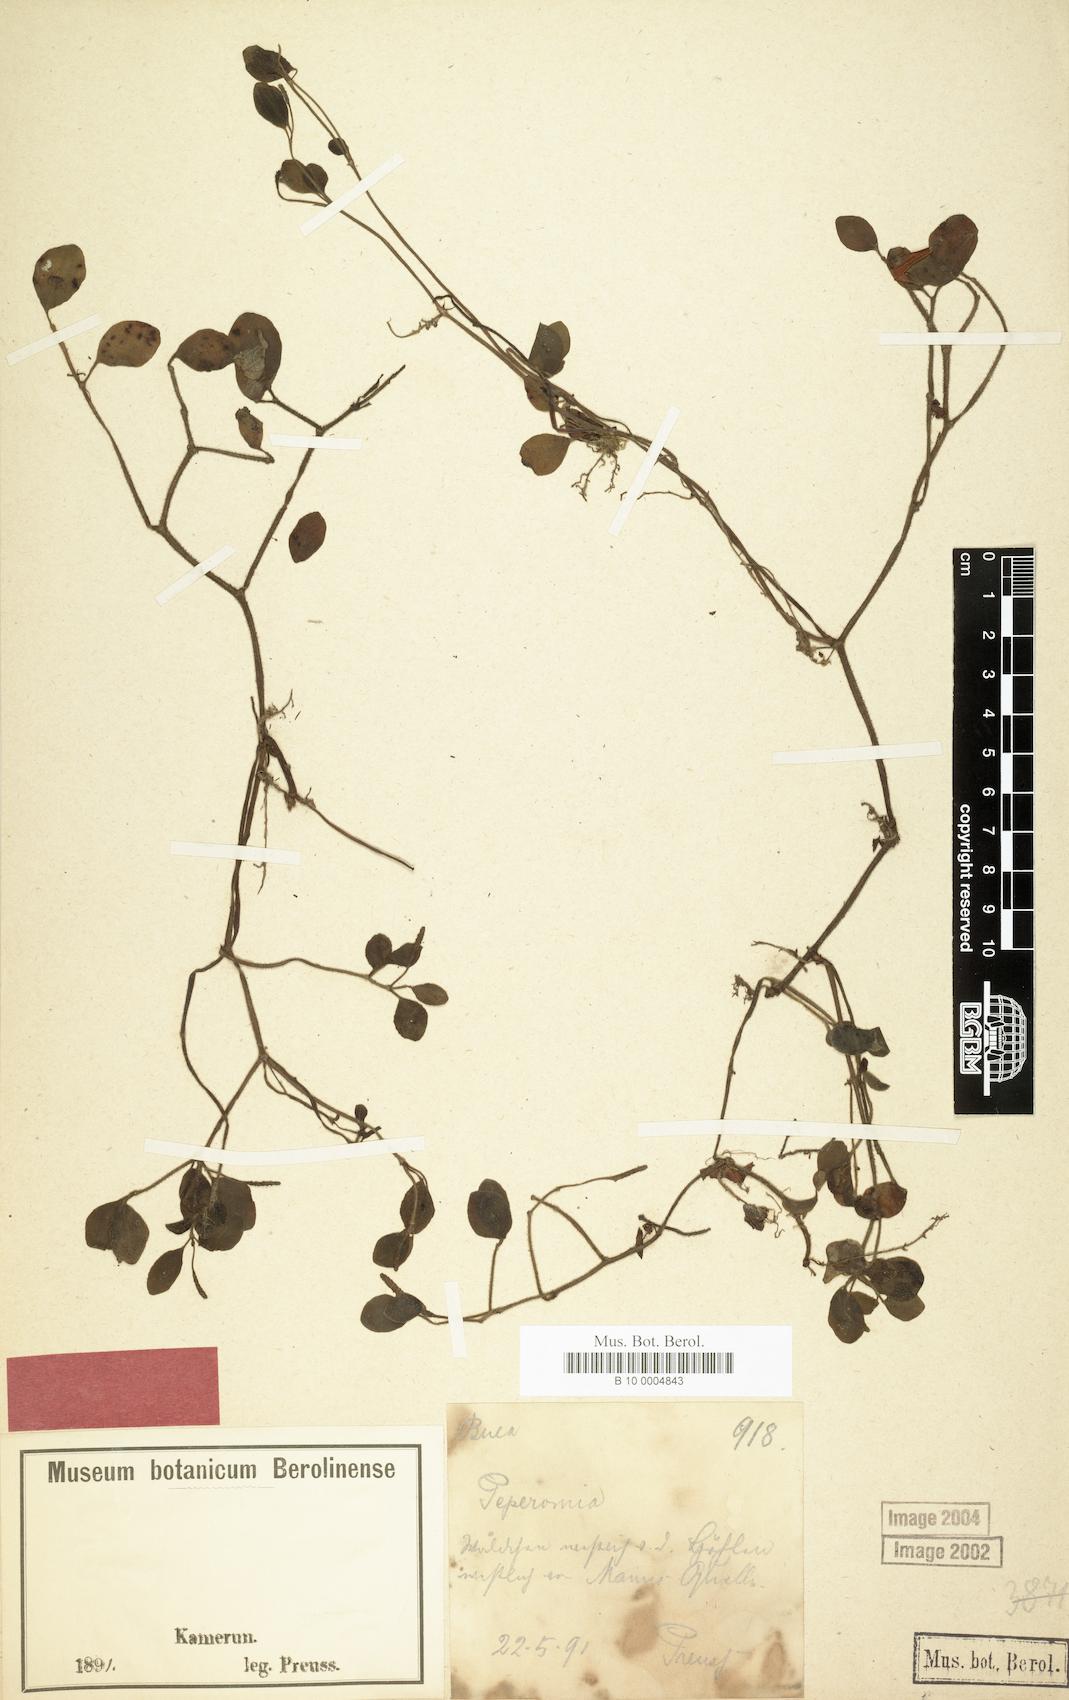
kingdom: Plantae
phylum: Tracheophyta
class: Magnoliopsida
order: Piperales
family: Piperaceae
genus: Peperomia
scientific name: Peperomia kamerunana
